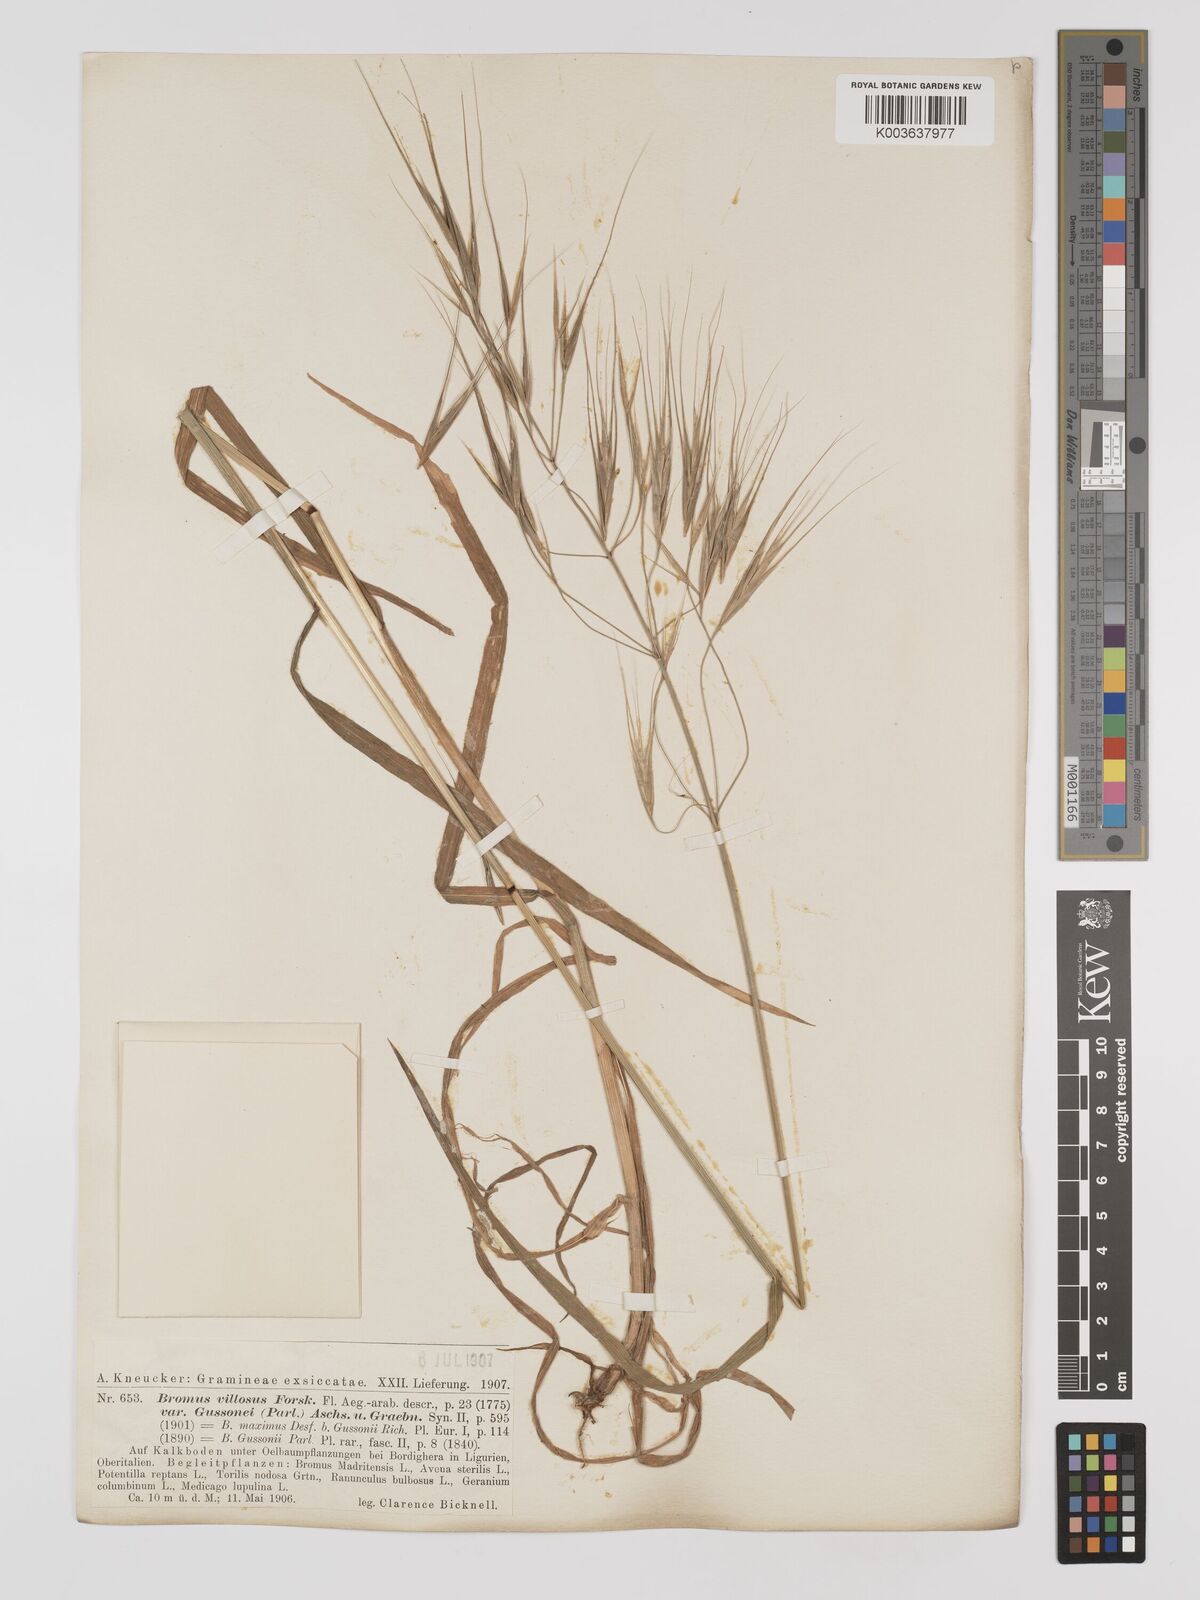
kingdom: Plantae
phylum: Tracheophyta
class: Liliopsida
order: Poales
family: Poaceae
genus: Bromus
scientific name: Bromus
